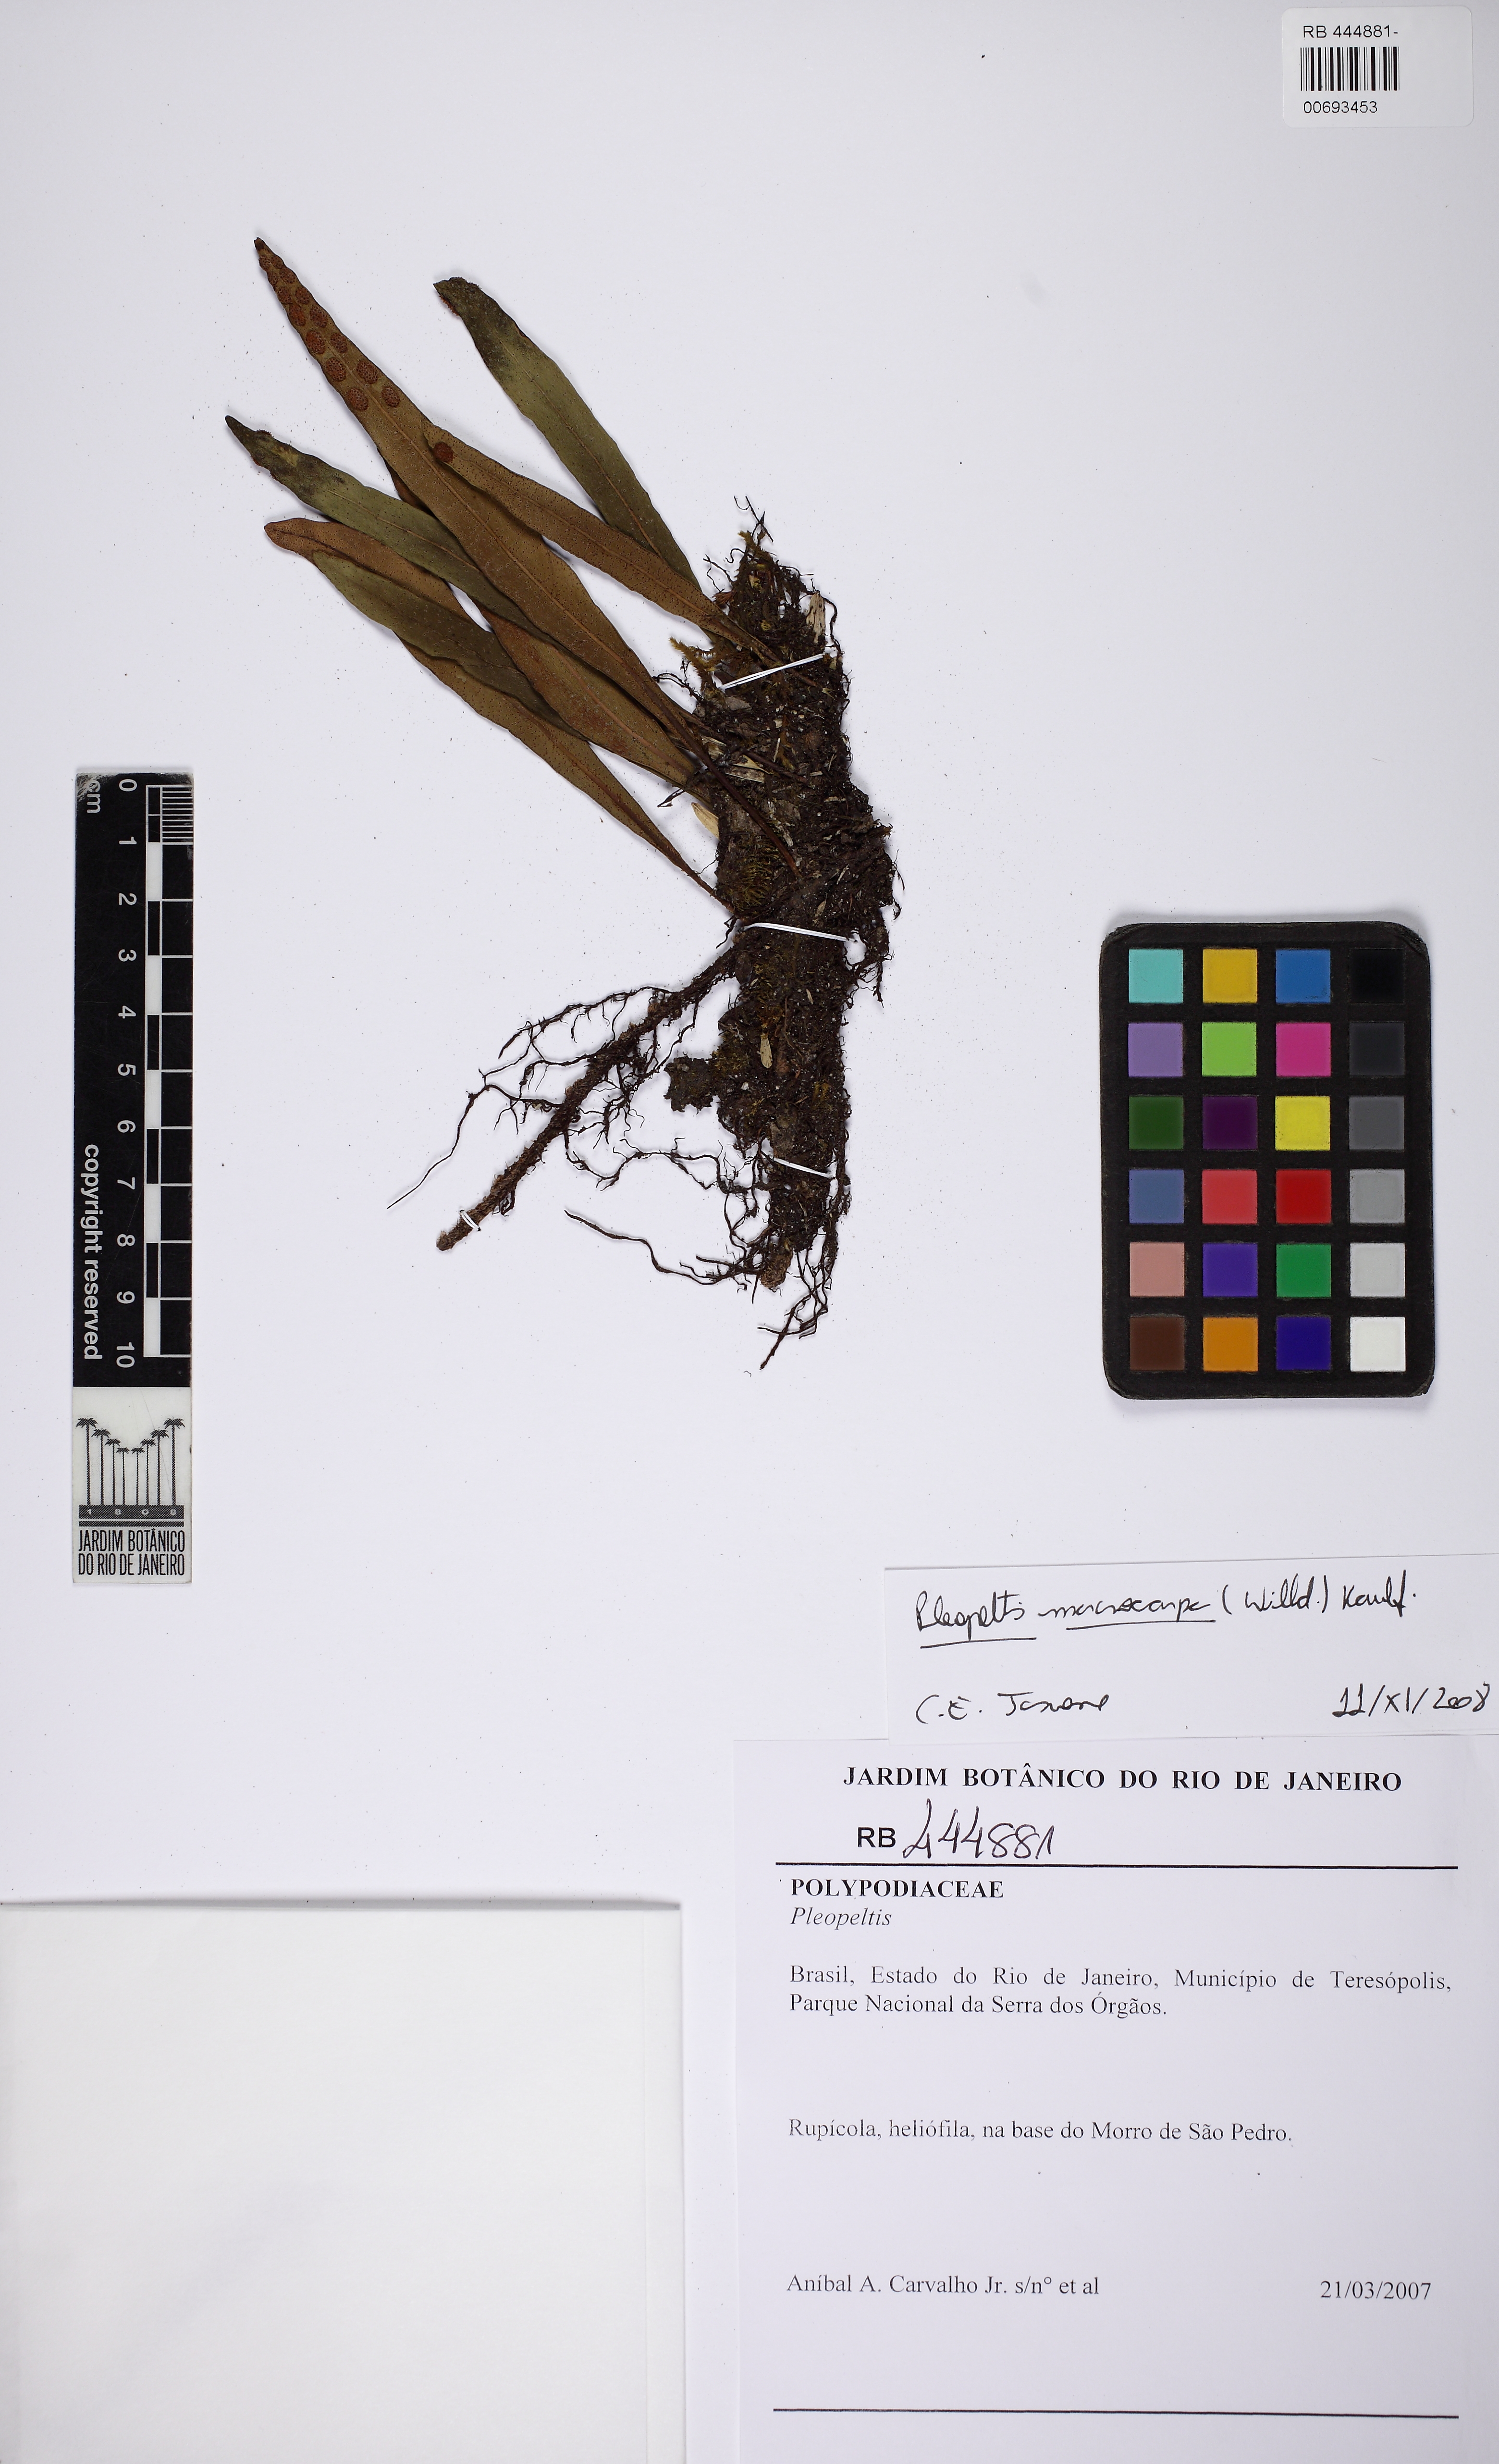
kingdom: Plantae
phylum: Tracheophyta
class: Polypodiopsida
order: Polypodiales
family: Polypodiaceae
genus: Pleopeltis
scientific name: Pleopeltis macrocarpa
